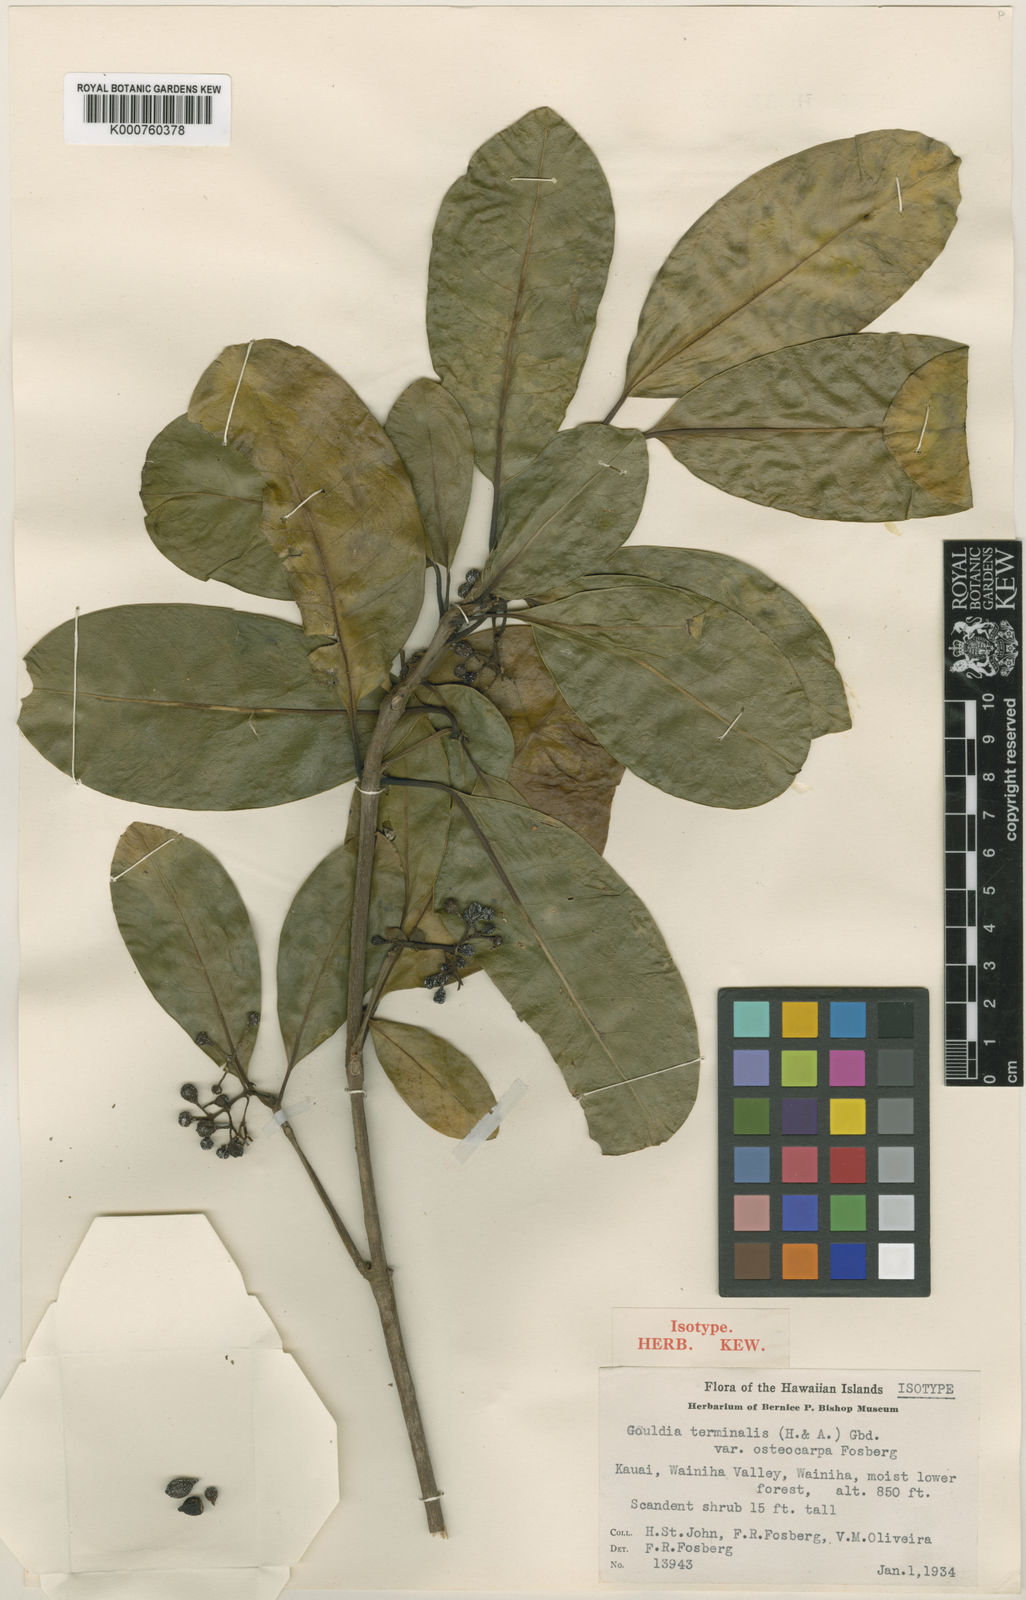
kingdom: Plantae
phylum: Tracheophyta
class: Magnoliopsida
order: Gentianales
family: Rubiaceae
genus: Kadua
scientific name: Kadua affinis
